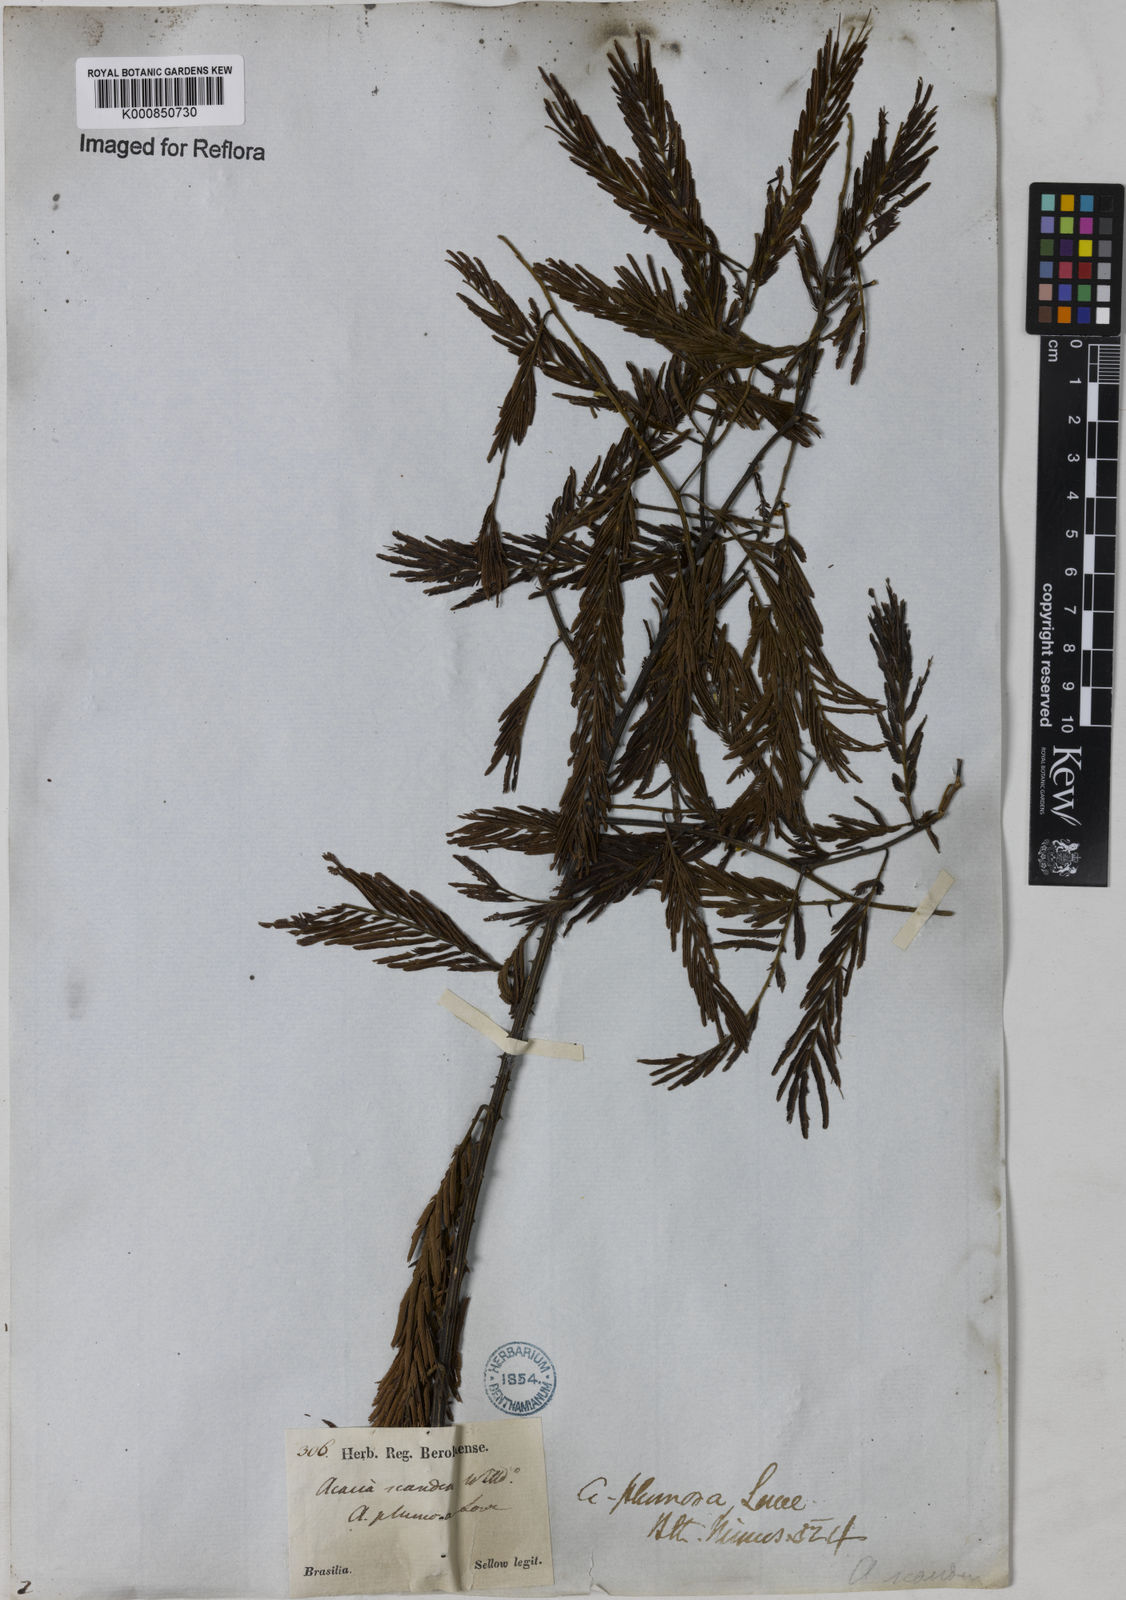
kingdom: Plantae
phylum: Tracheophyta
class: Magnoliopsida
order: Fabales
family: Fabaceae
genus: Senegalia
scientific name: Senegalia lowei
